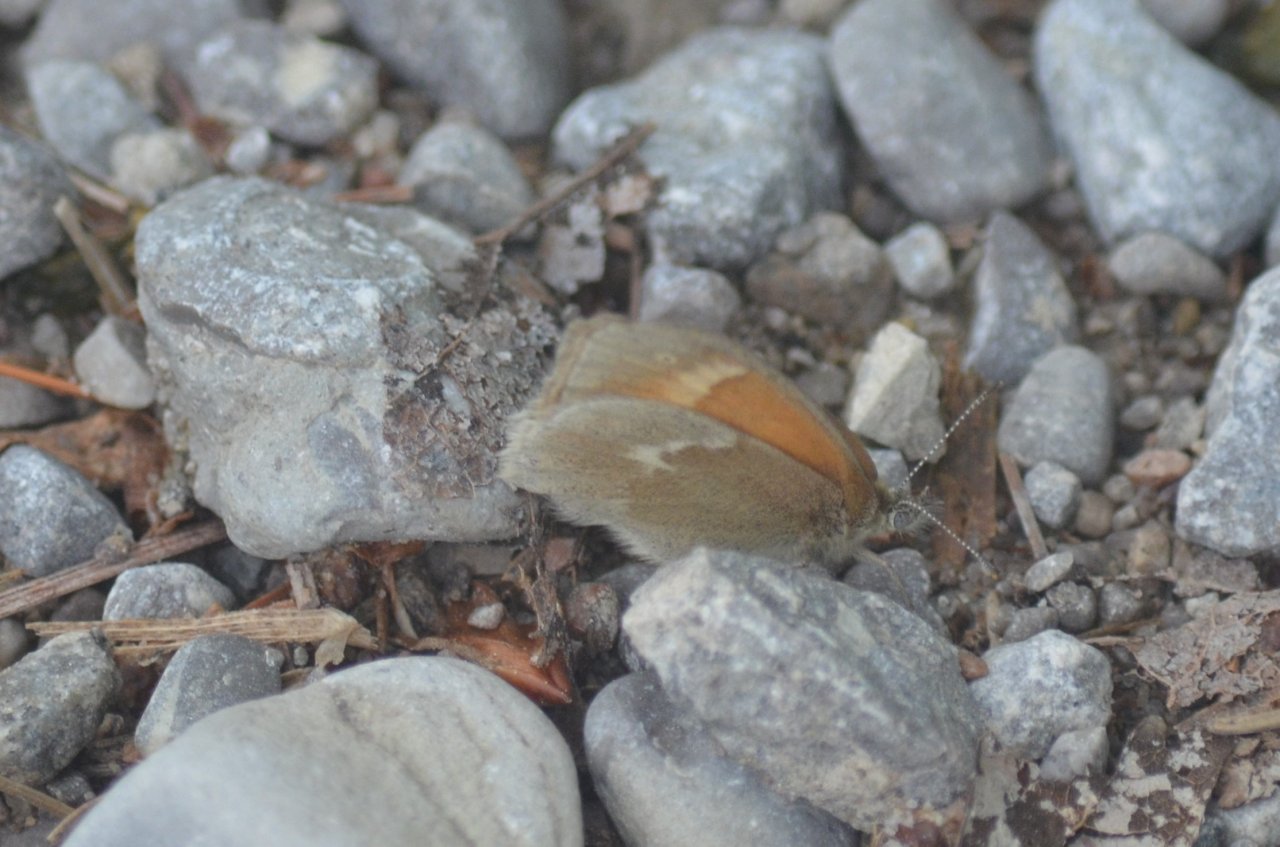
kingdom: Animalia
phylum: Arthropoda
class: Insecta
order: Lepidoptera
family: Nymphalidae
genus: Coenonympha
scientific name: Coenonympha tullia
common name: Large Heath
